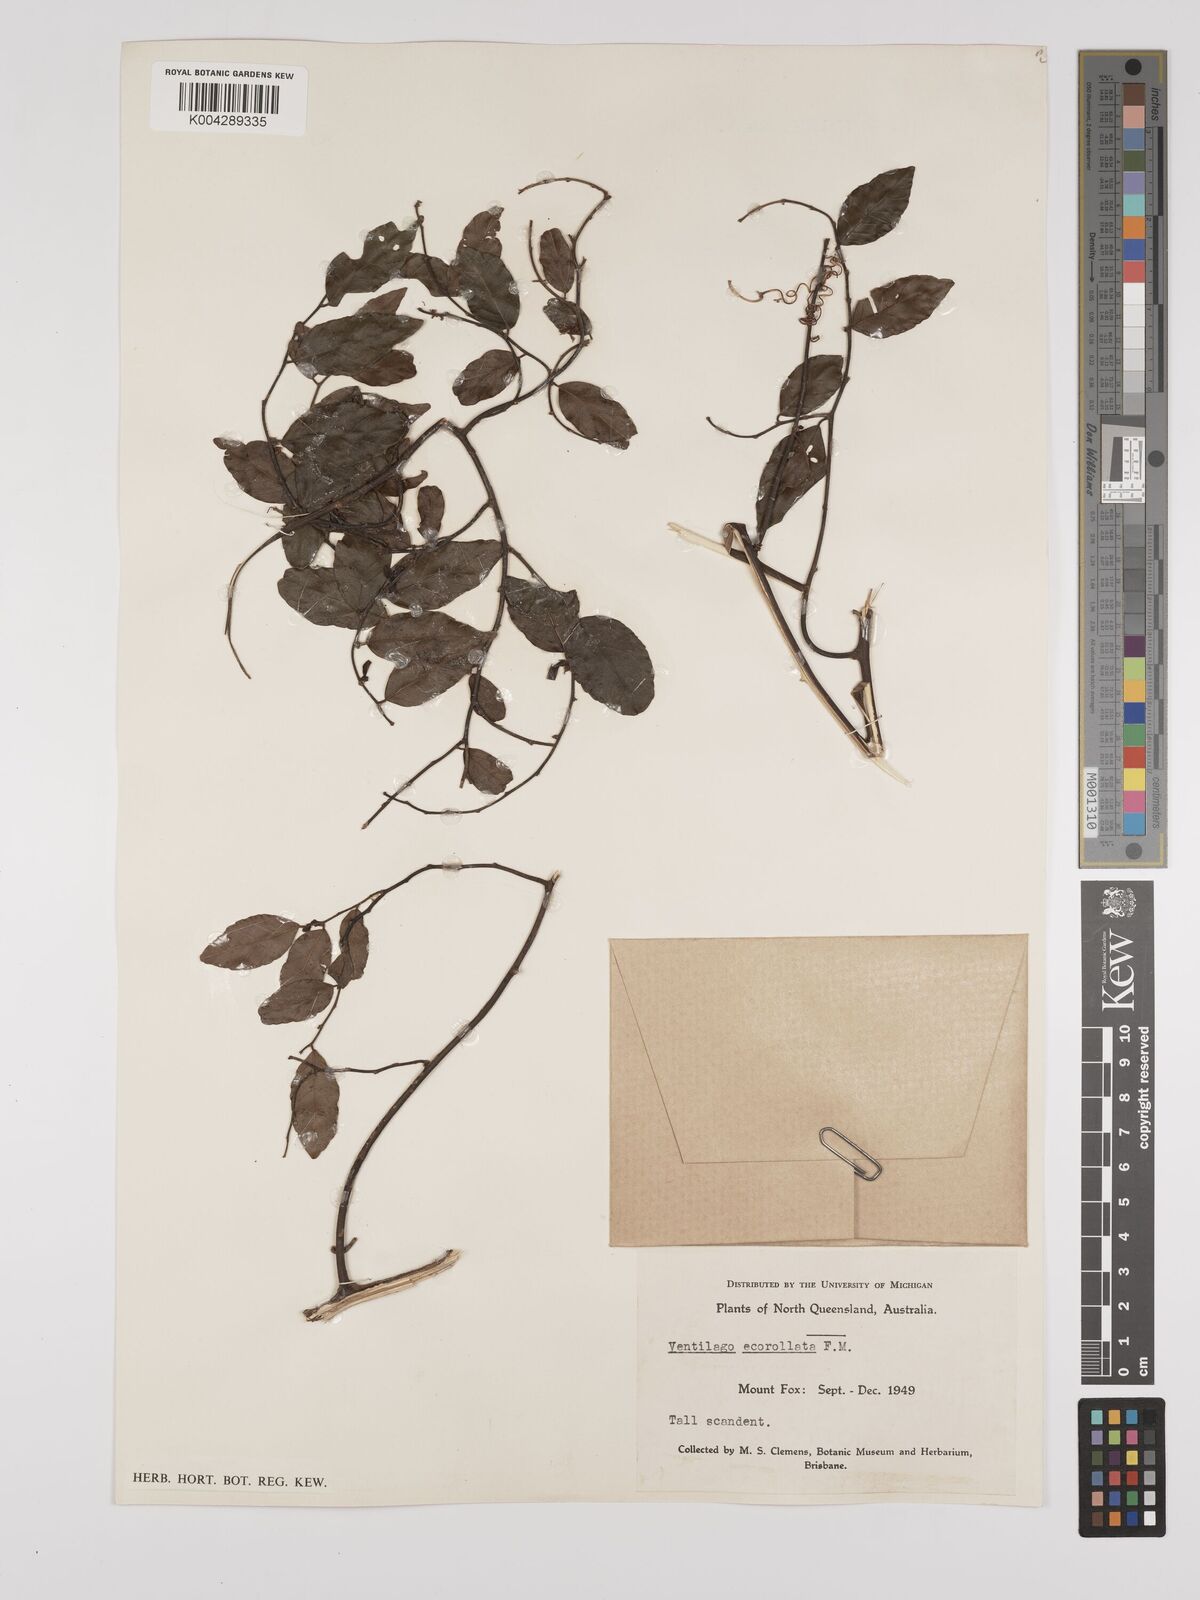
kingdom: Plantae
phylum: Tracheophyta
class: Magnoliopsida
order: Rosales
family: Rhamnaceae
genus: Ventilago
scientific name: Ventilago ecorollata
